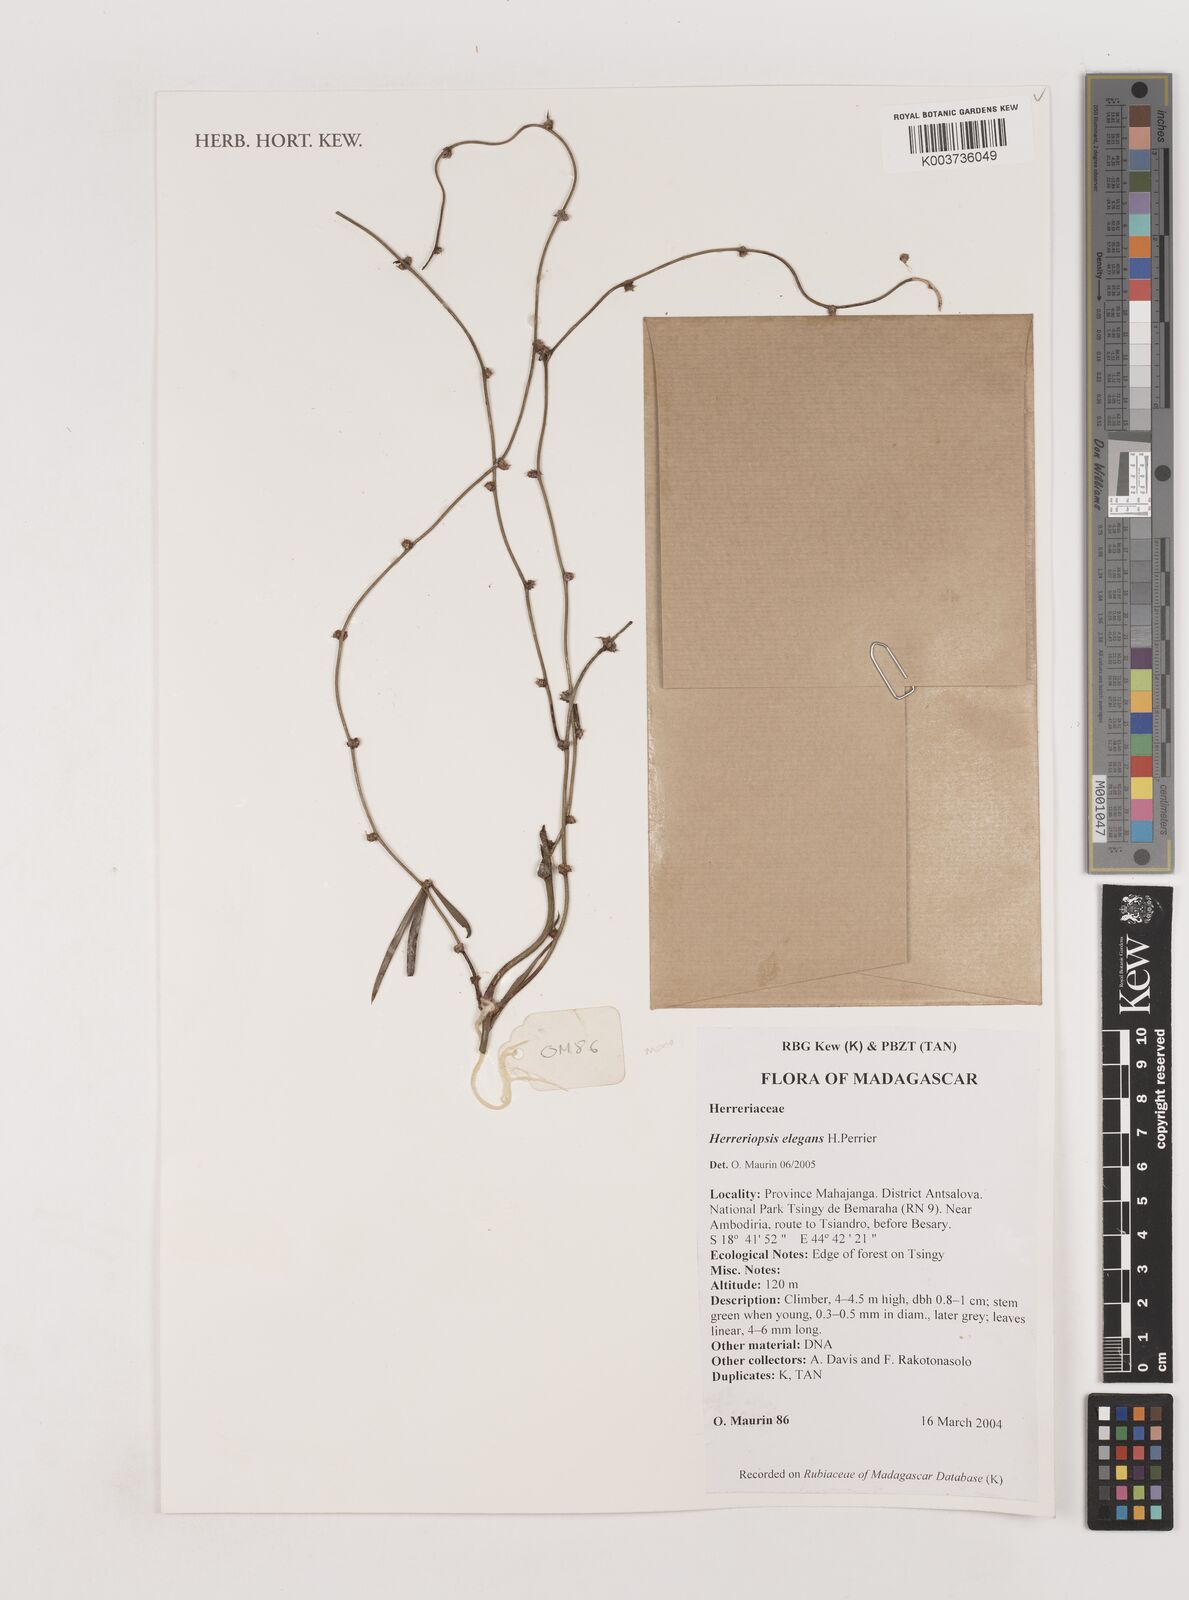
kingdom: Plantae
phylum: Tracheophyta
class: Liliopsida
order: Asparagales
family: Asparagaceae
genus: Herreriopsis
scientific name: Herreriopsis elegans
